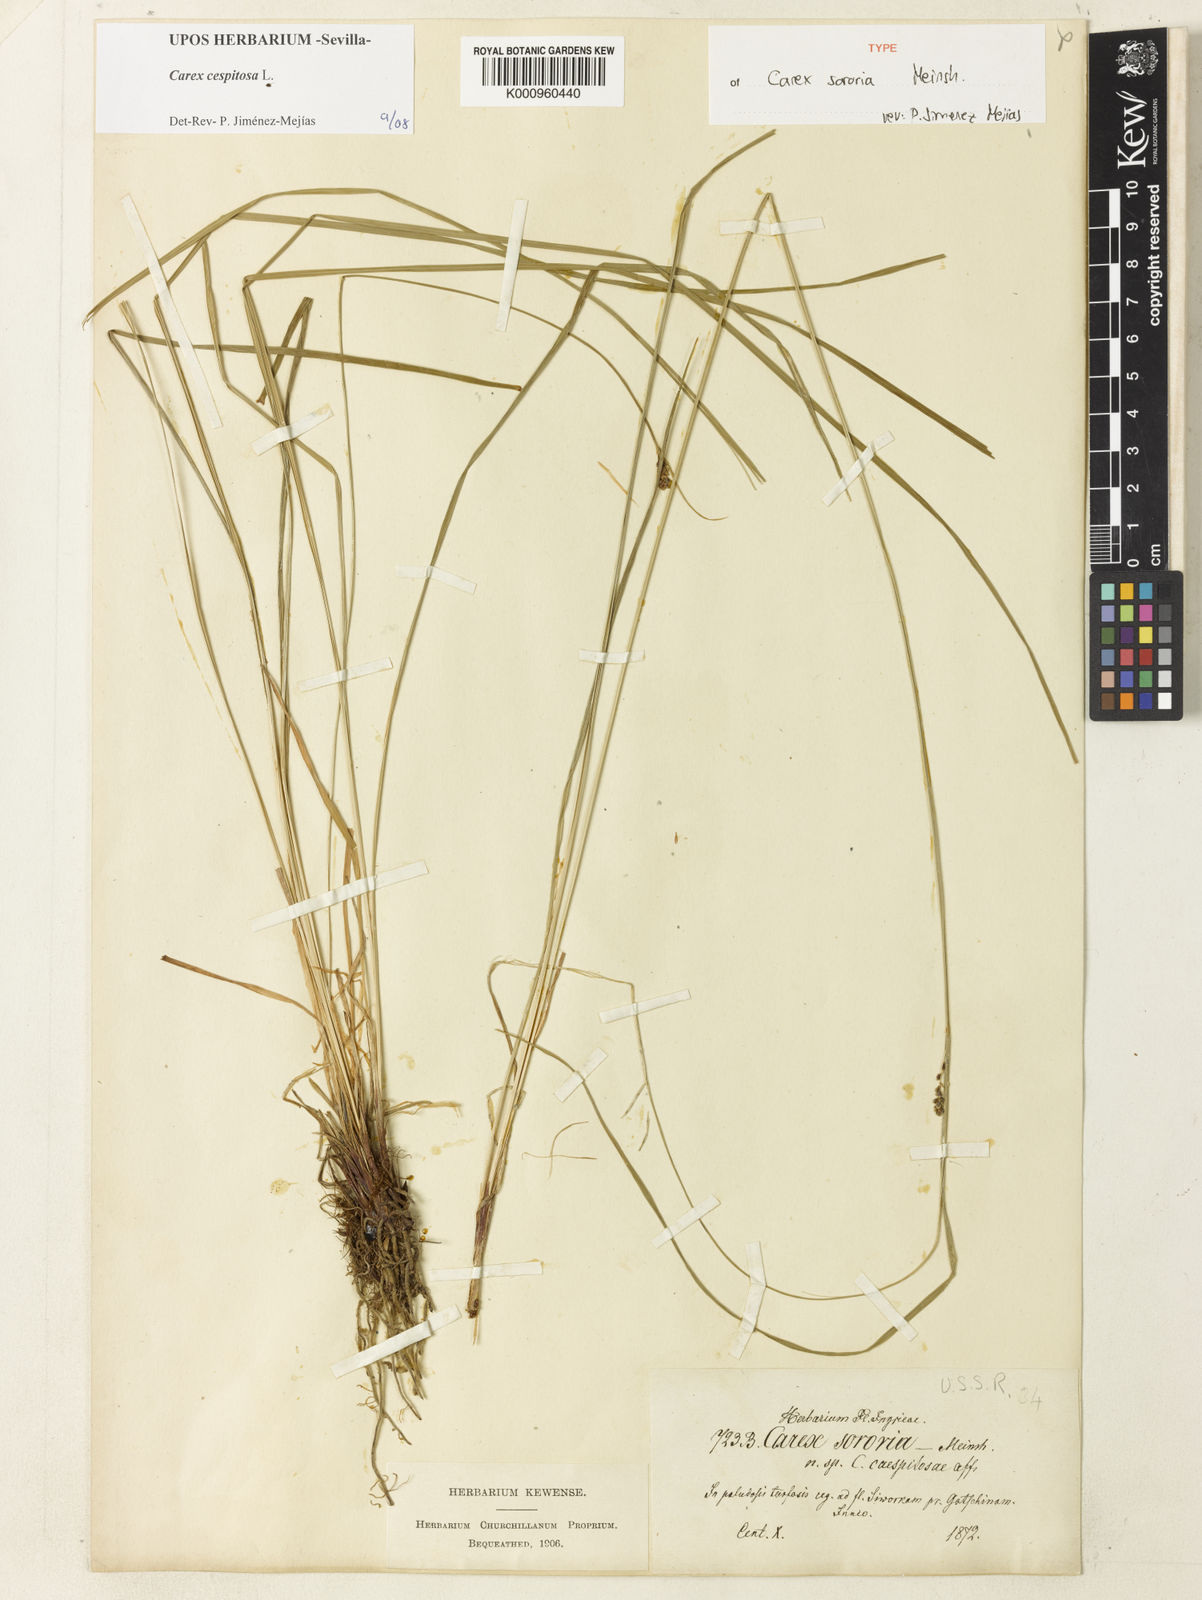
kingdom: Plantae
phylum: Tracheophyta
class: Liliopsida
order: Poales
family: Cyperaceae
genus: Carex
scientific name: Carex cespitosa
